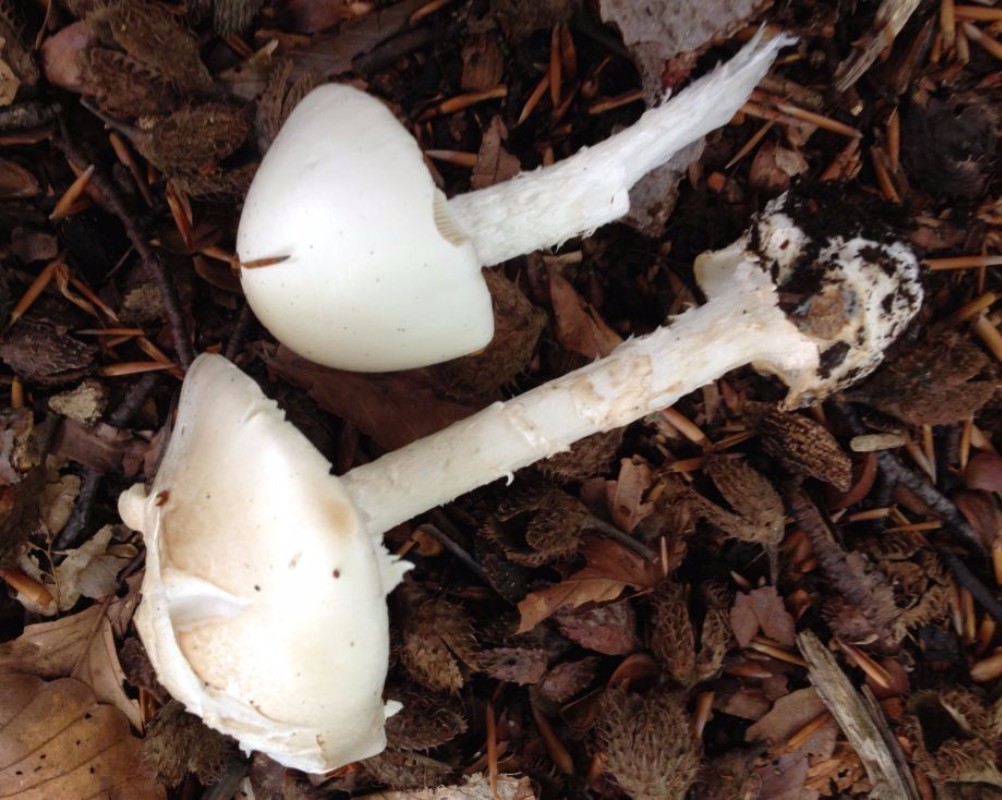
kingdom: Fungi
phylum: Basidiomycota
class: Agaricomycetes
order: Agaricales
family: Amanitaceae
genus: Amanita
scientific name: Amanita virosa
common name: snehvid fluesvamp
